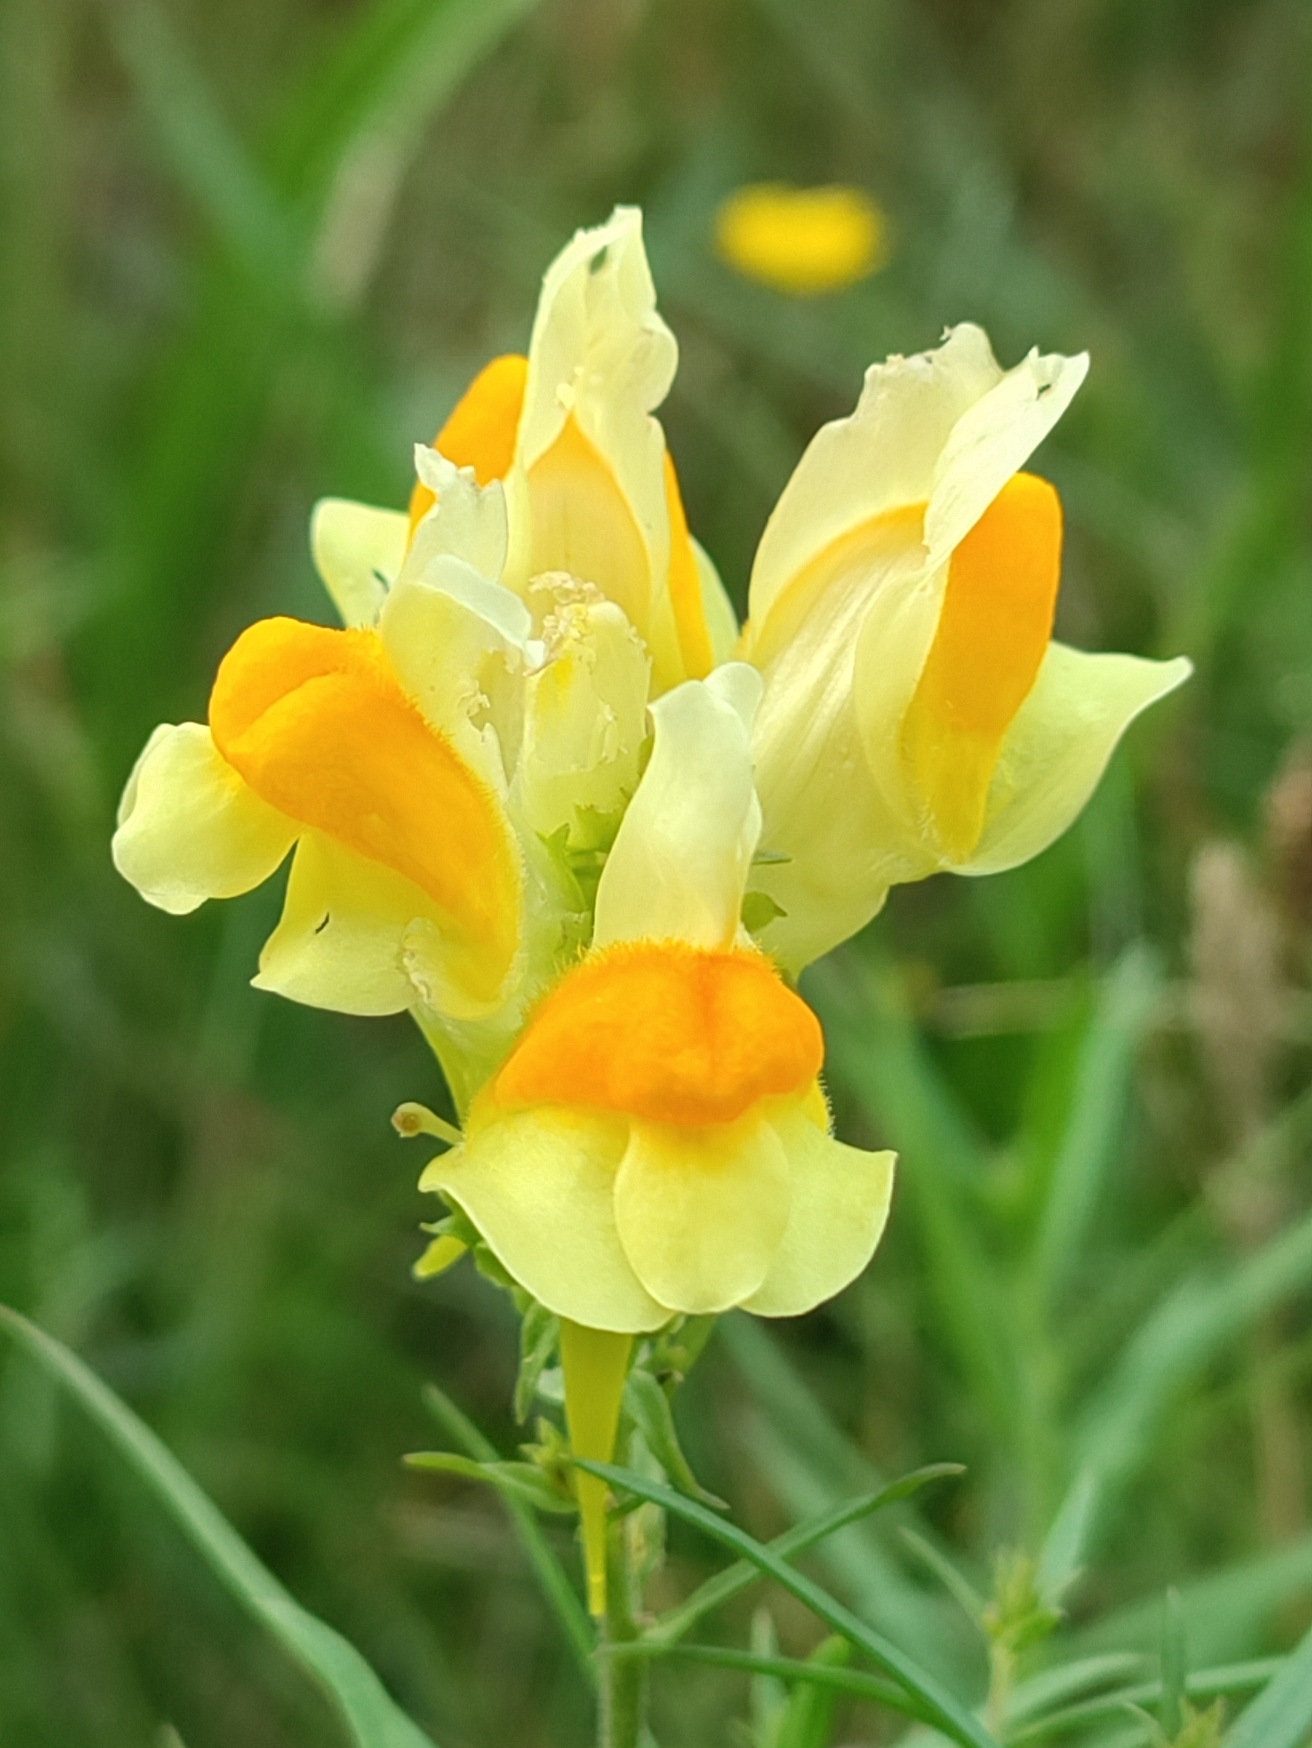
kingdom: Plantae
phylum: Tracheophyta
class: Magnoliopsida
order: Lamiales
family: Plantaginaceae
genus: Linaria
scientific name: Linaria vulgaris
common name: Almindelig torskemund
